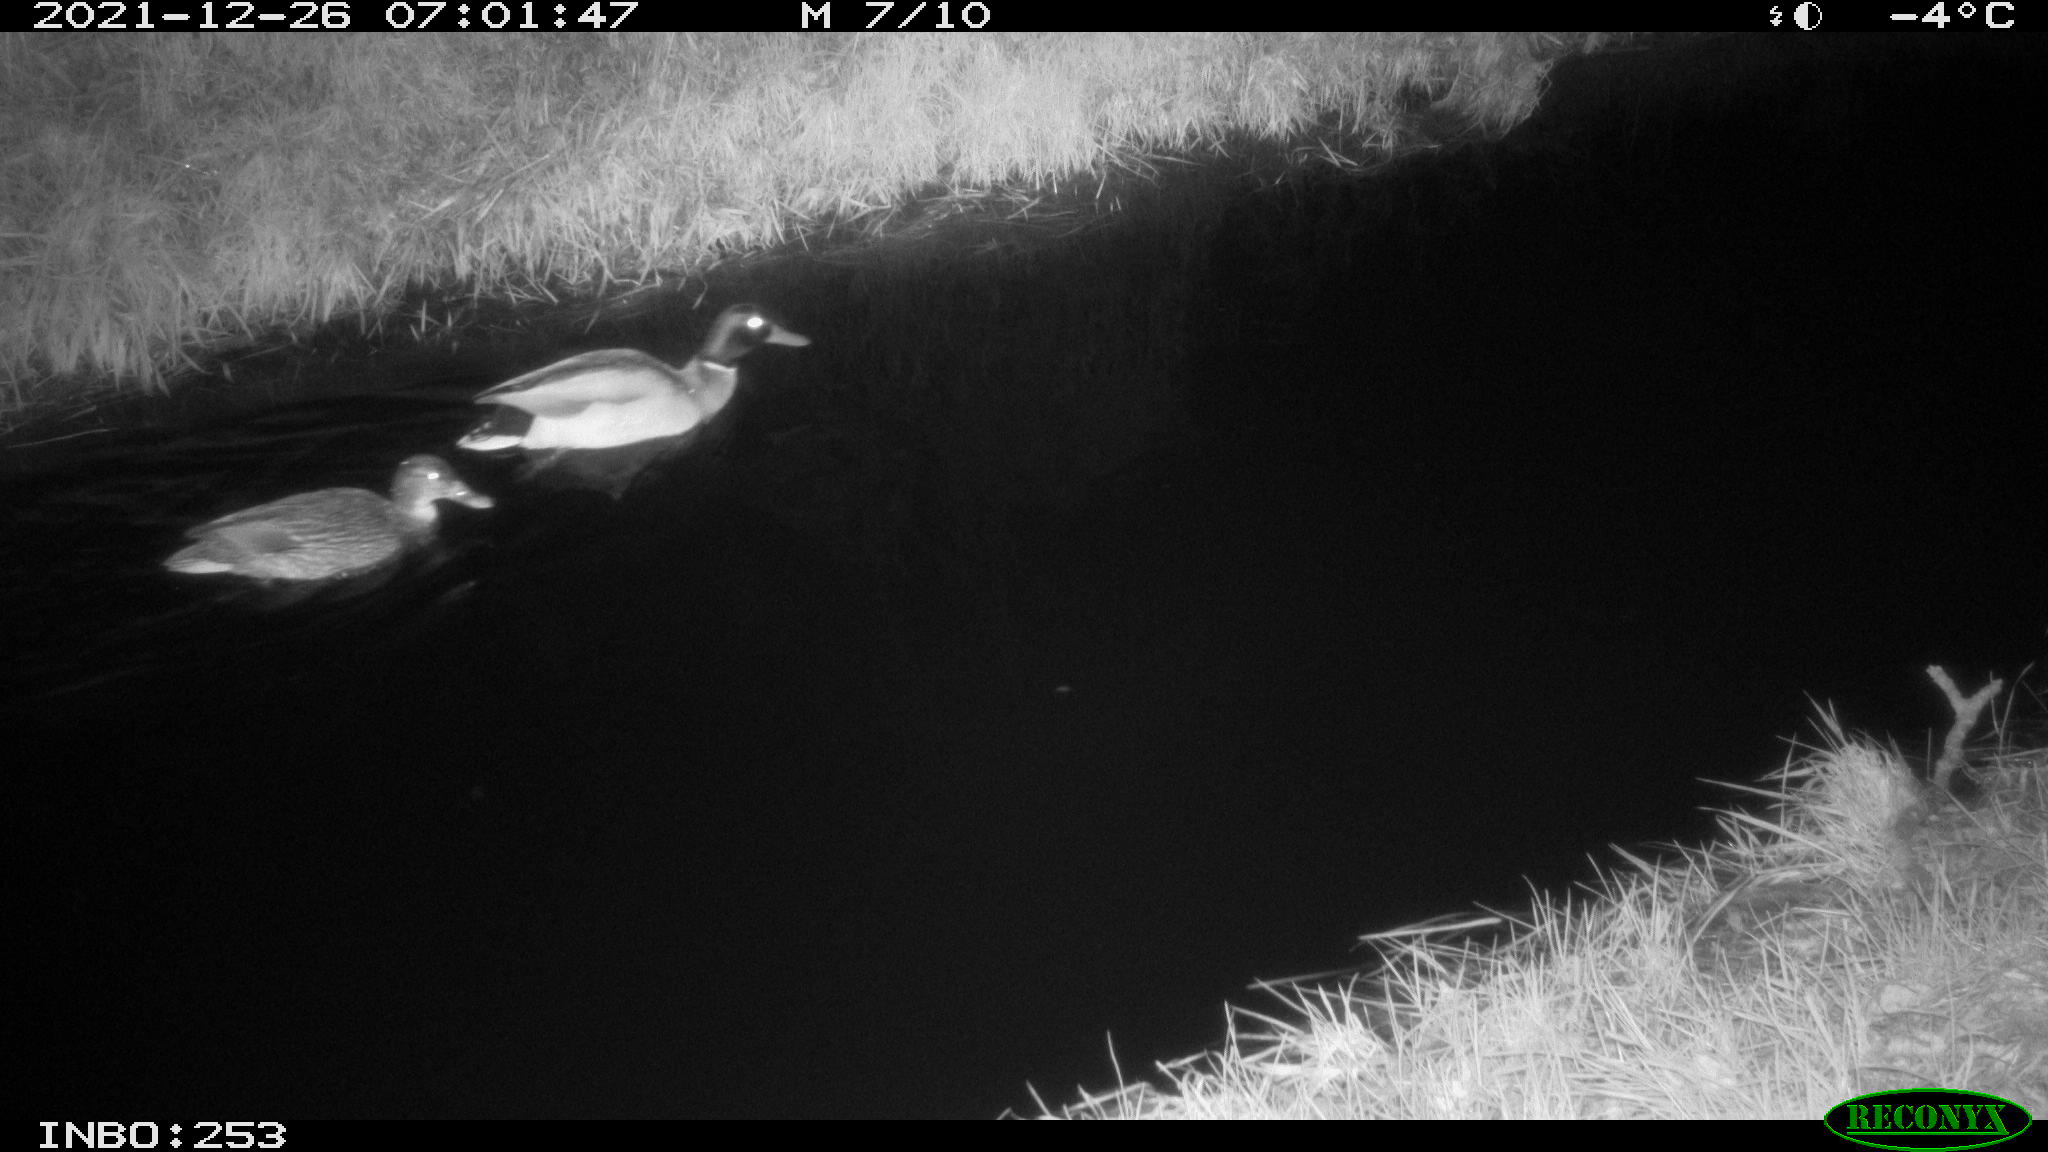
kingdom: Animalia
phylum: Chordata
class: Aves
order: Anseriformes
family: Anatidae
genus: Anas
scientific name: Anas
